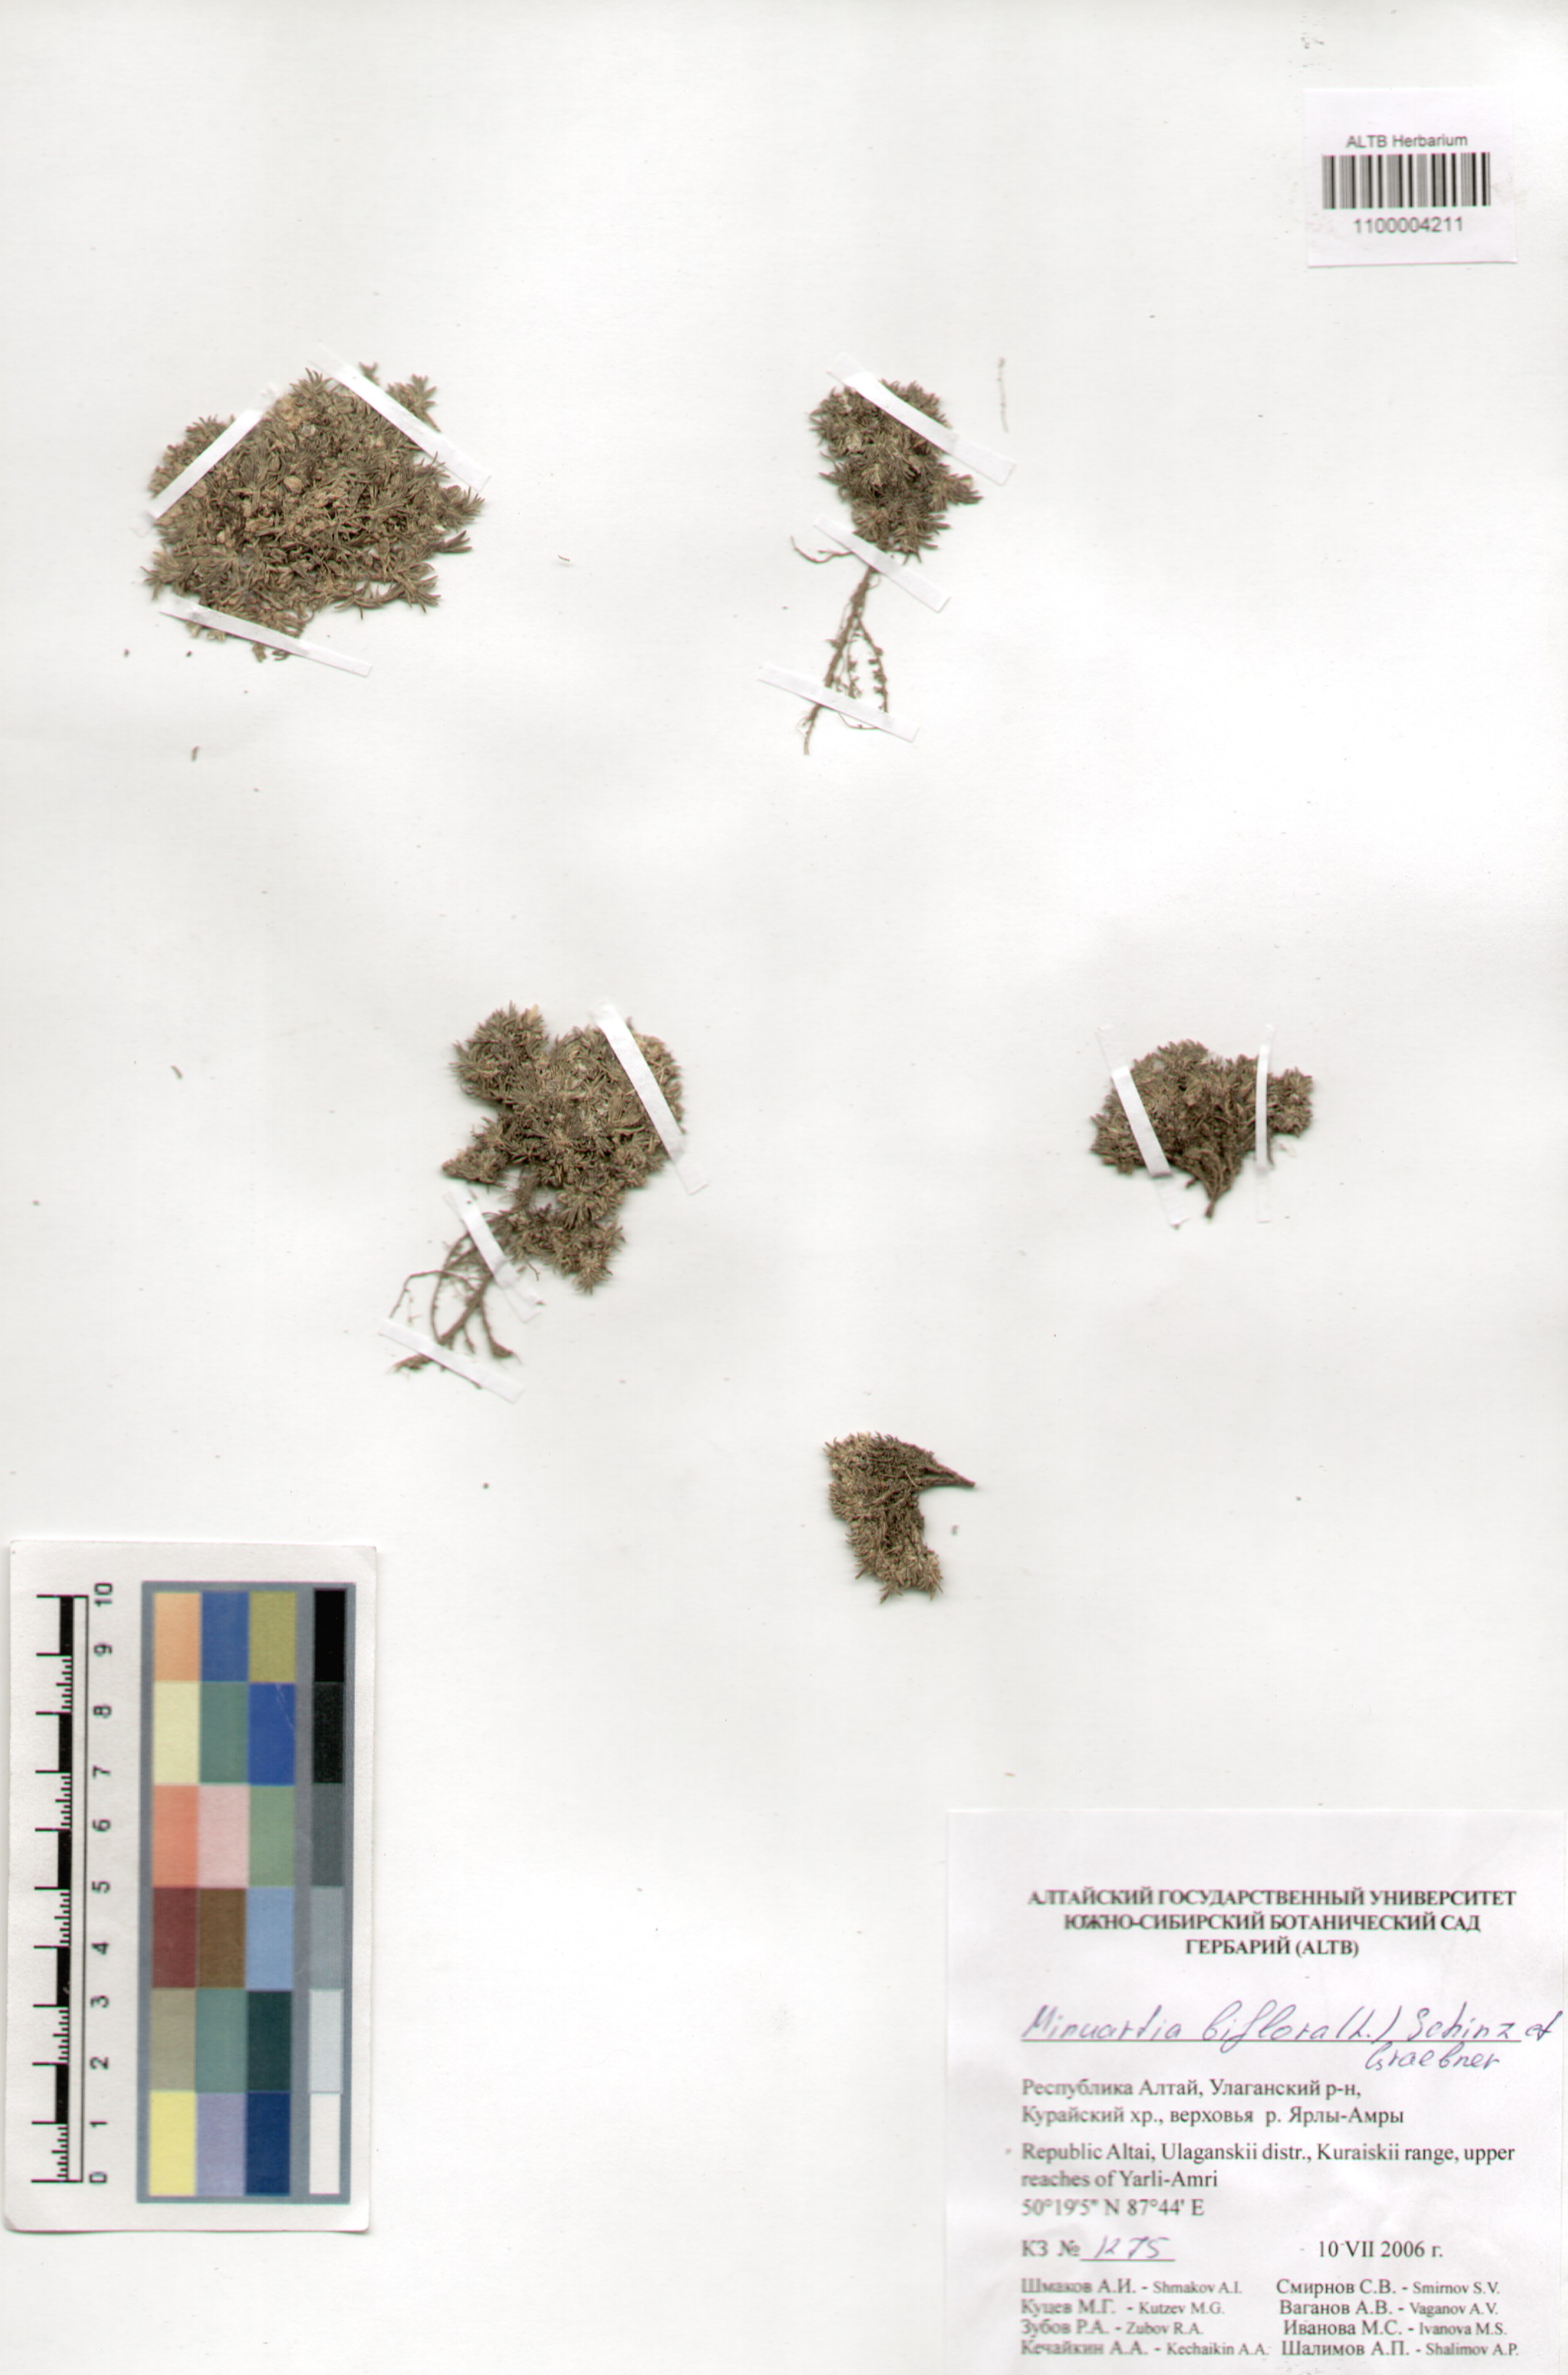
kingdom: Plantae
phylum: Tracheophyta
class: Magnoliopsida
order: Caryophyllales
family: Caryophyllaceae
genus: Cherleria
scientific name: Cherleria biflora
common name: Mountain sandwort
